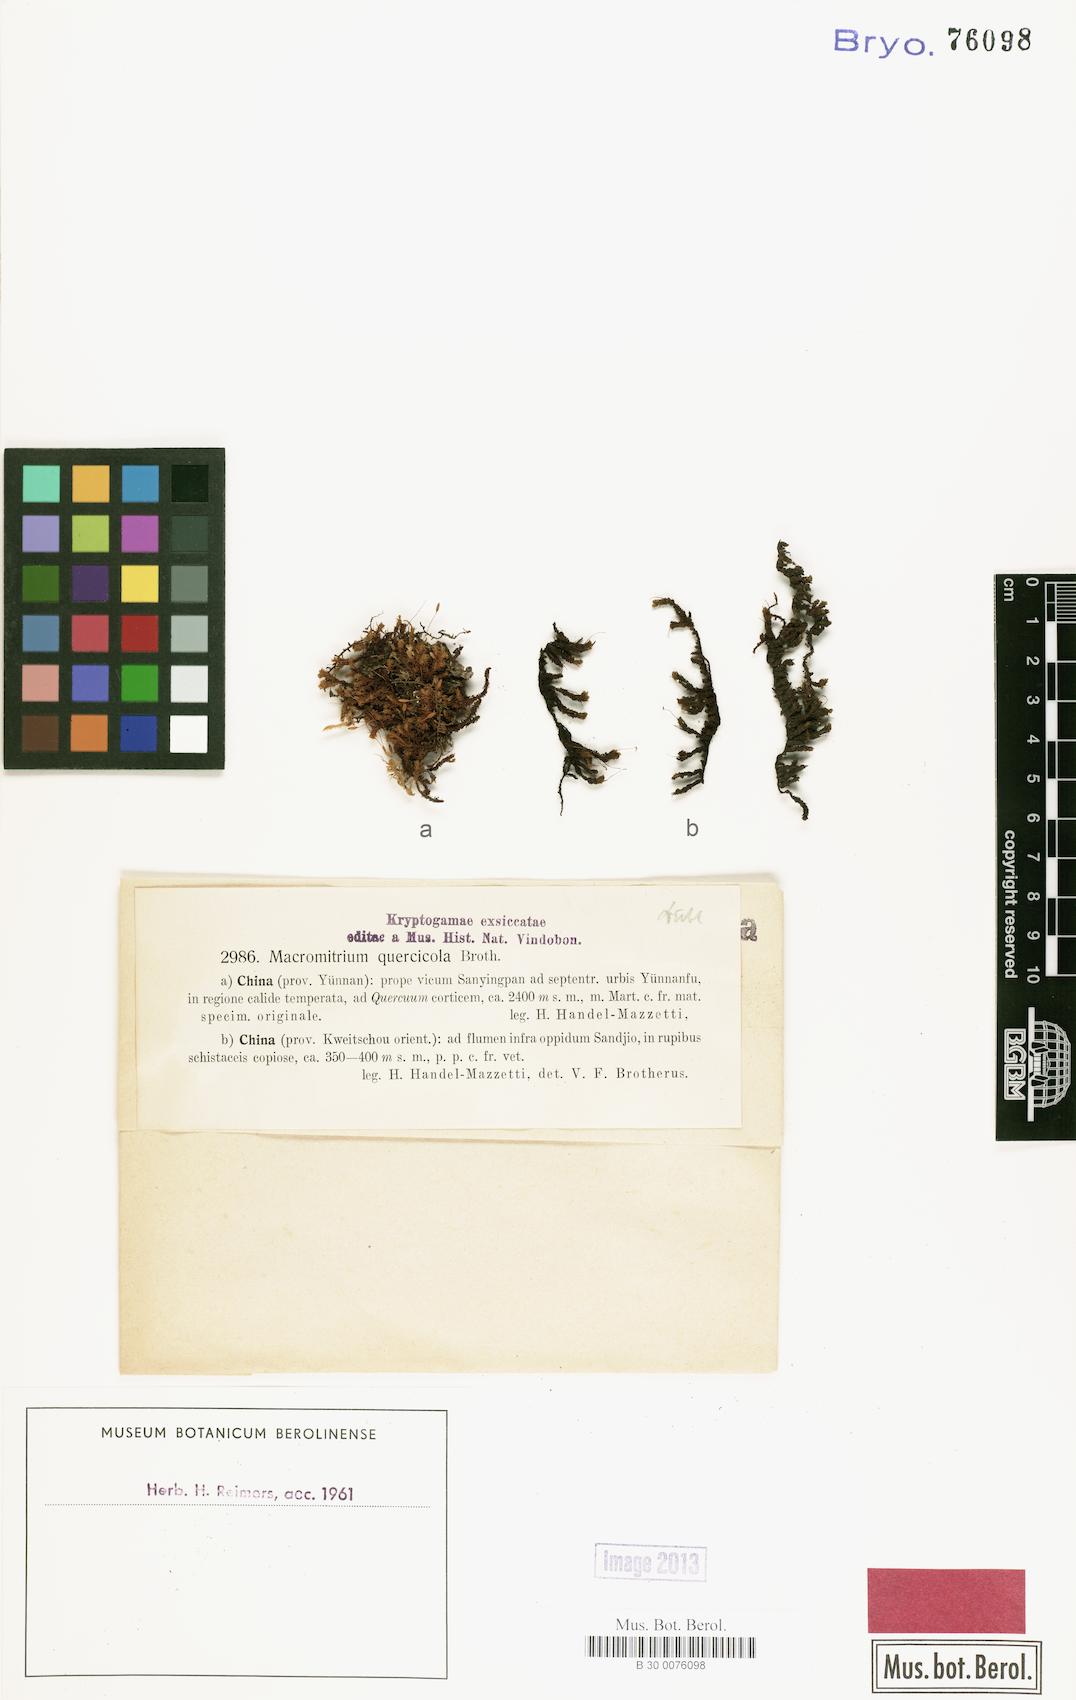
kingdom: Plantae
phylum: Bryophyta
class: Bryopsida
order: Orthotrichales
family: Orthotrichaceae
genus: Macromitrium
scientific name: Macromitrium ferriei
